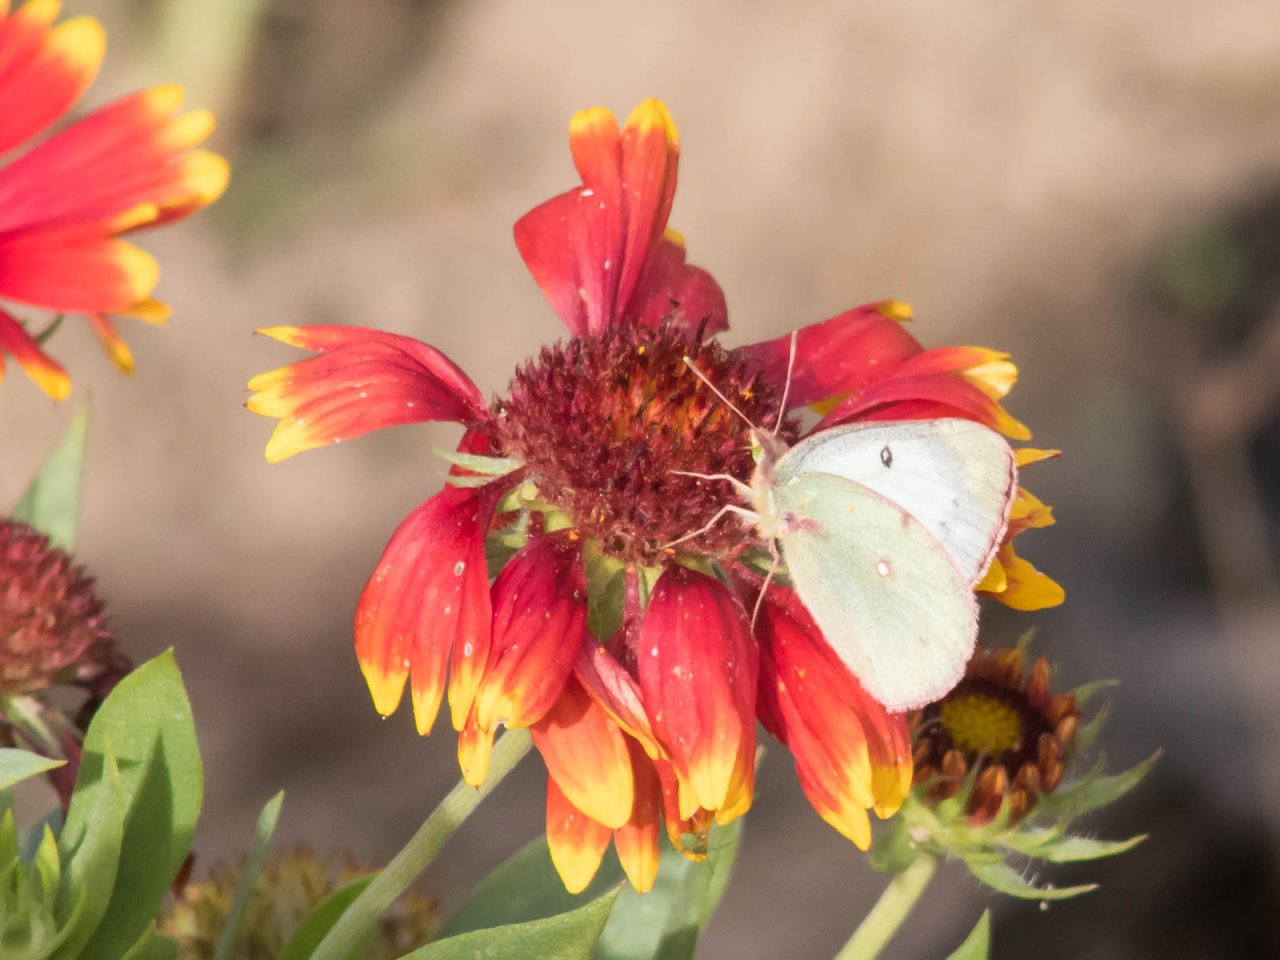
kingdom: Animalia
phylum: Arthropoda
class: Insecta
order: Lepidoptera
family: Pieridae
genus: Colias
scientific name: Colias
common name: Clouded Yellows
